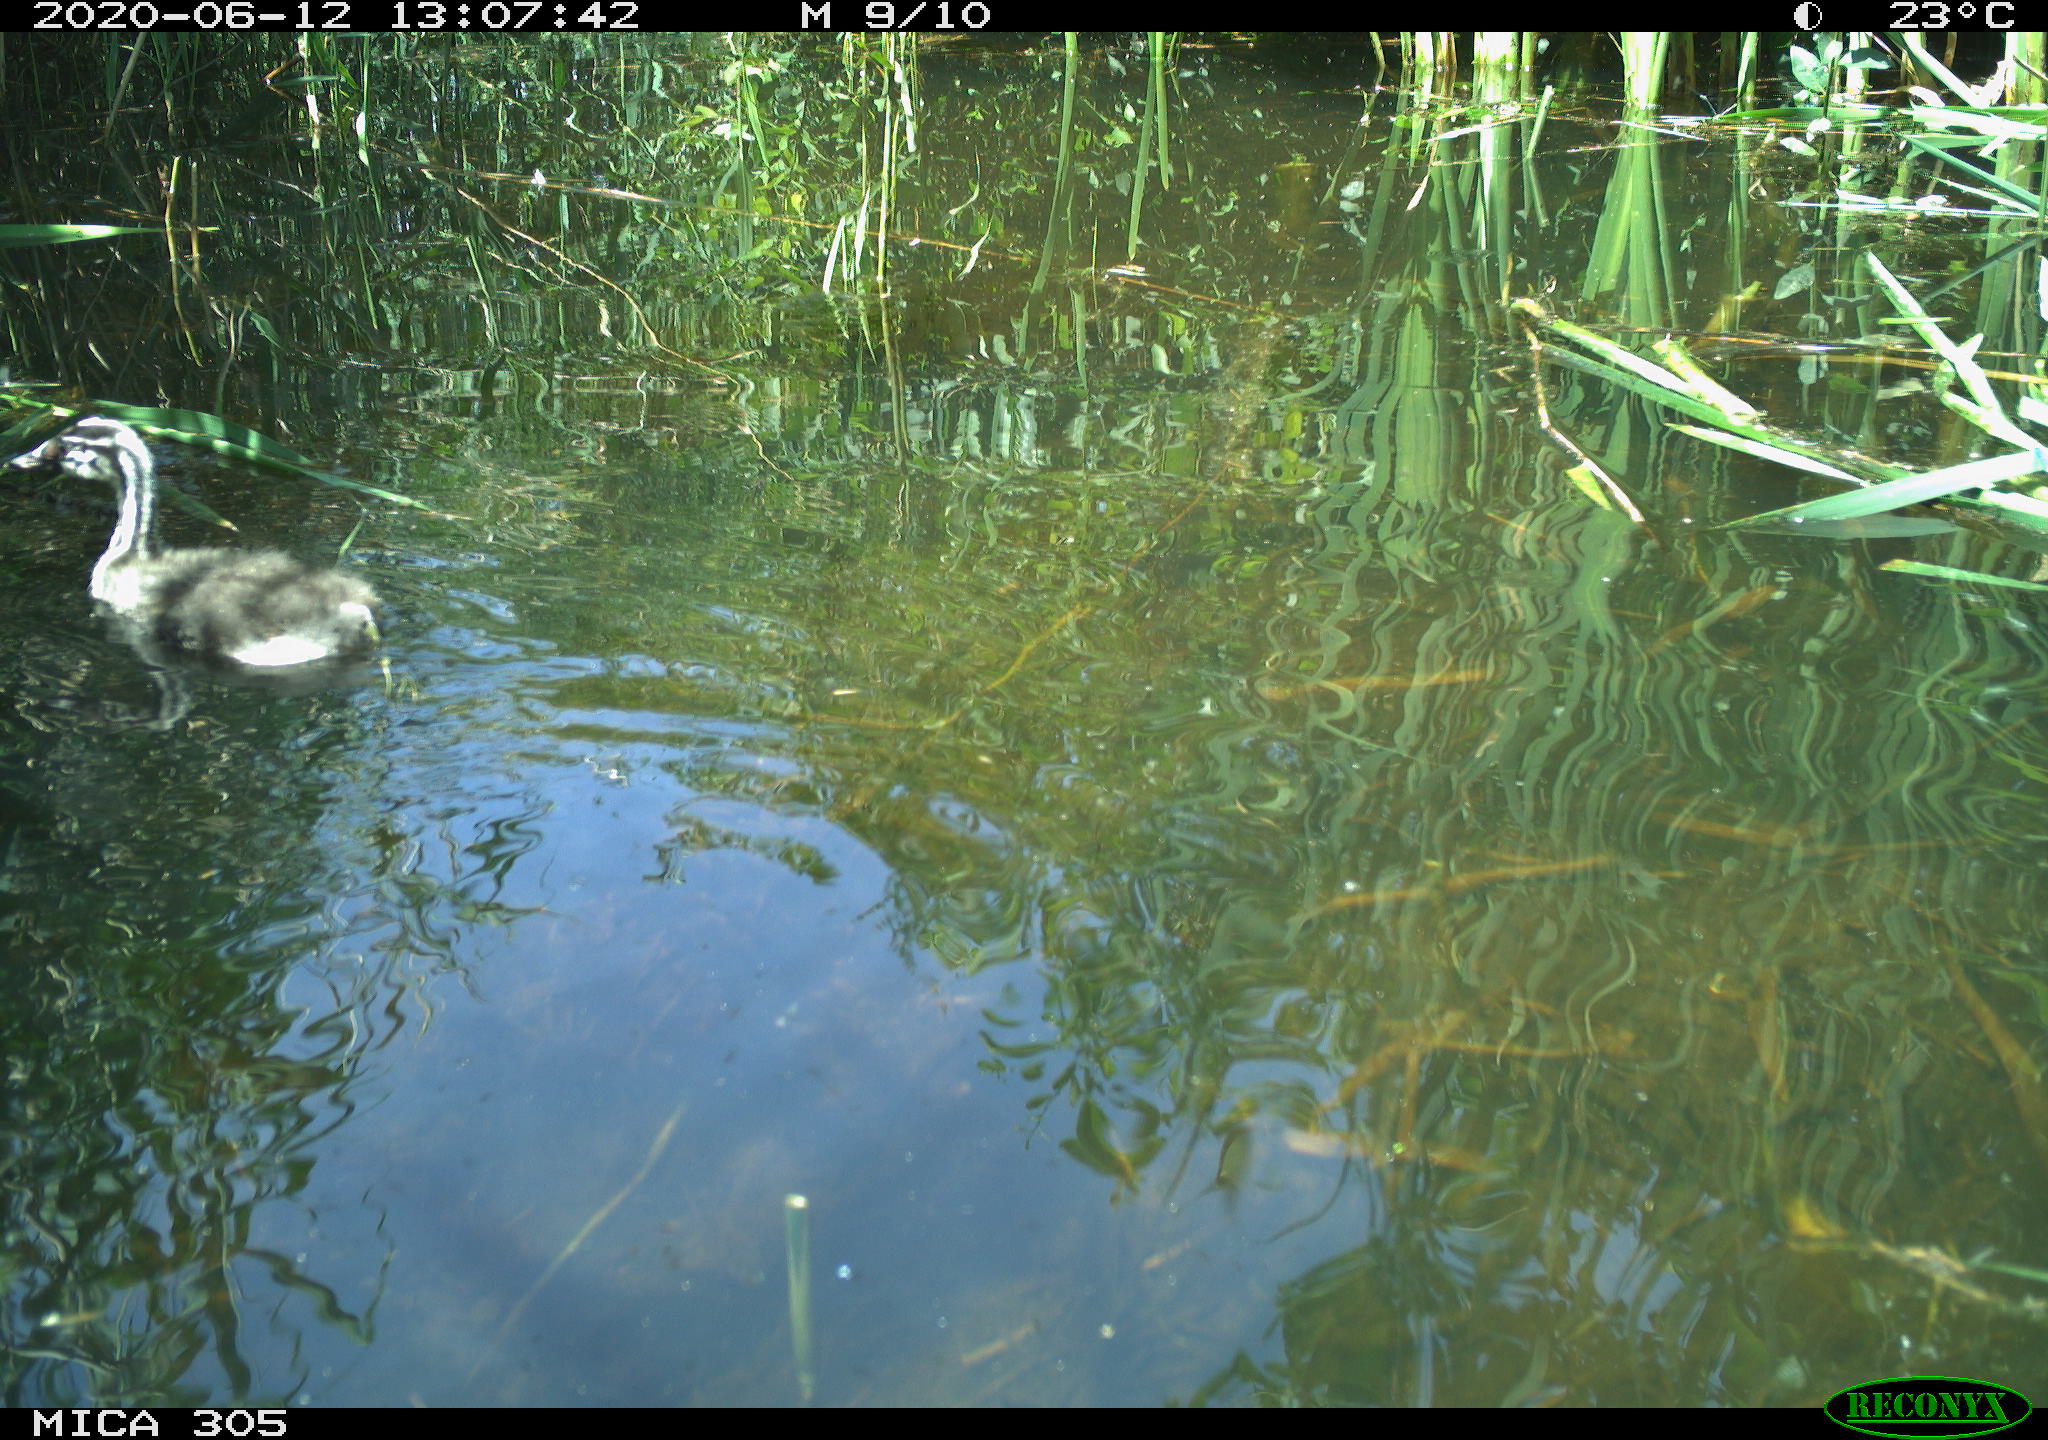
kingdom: Animalia
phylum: Chordata
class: Aves
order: Podicipediformes
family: Podicipedidae
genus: Podiceps
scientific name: Podiceps cristatus
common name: Great crested grebe
